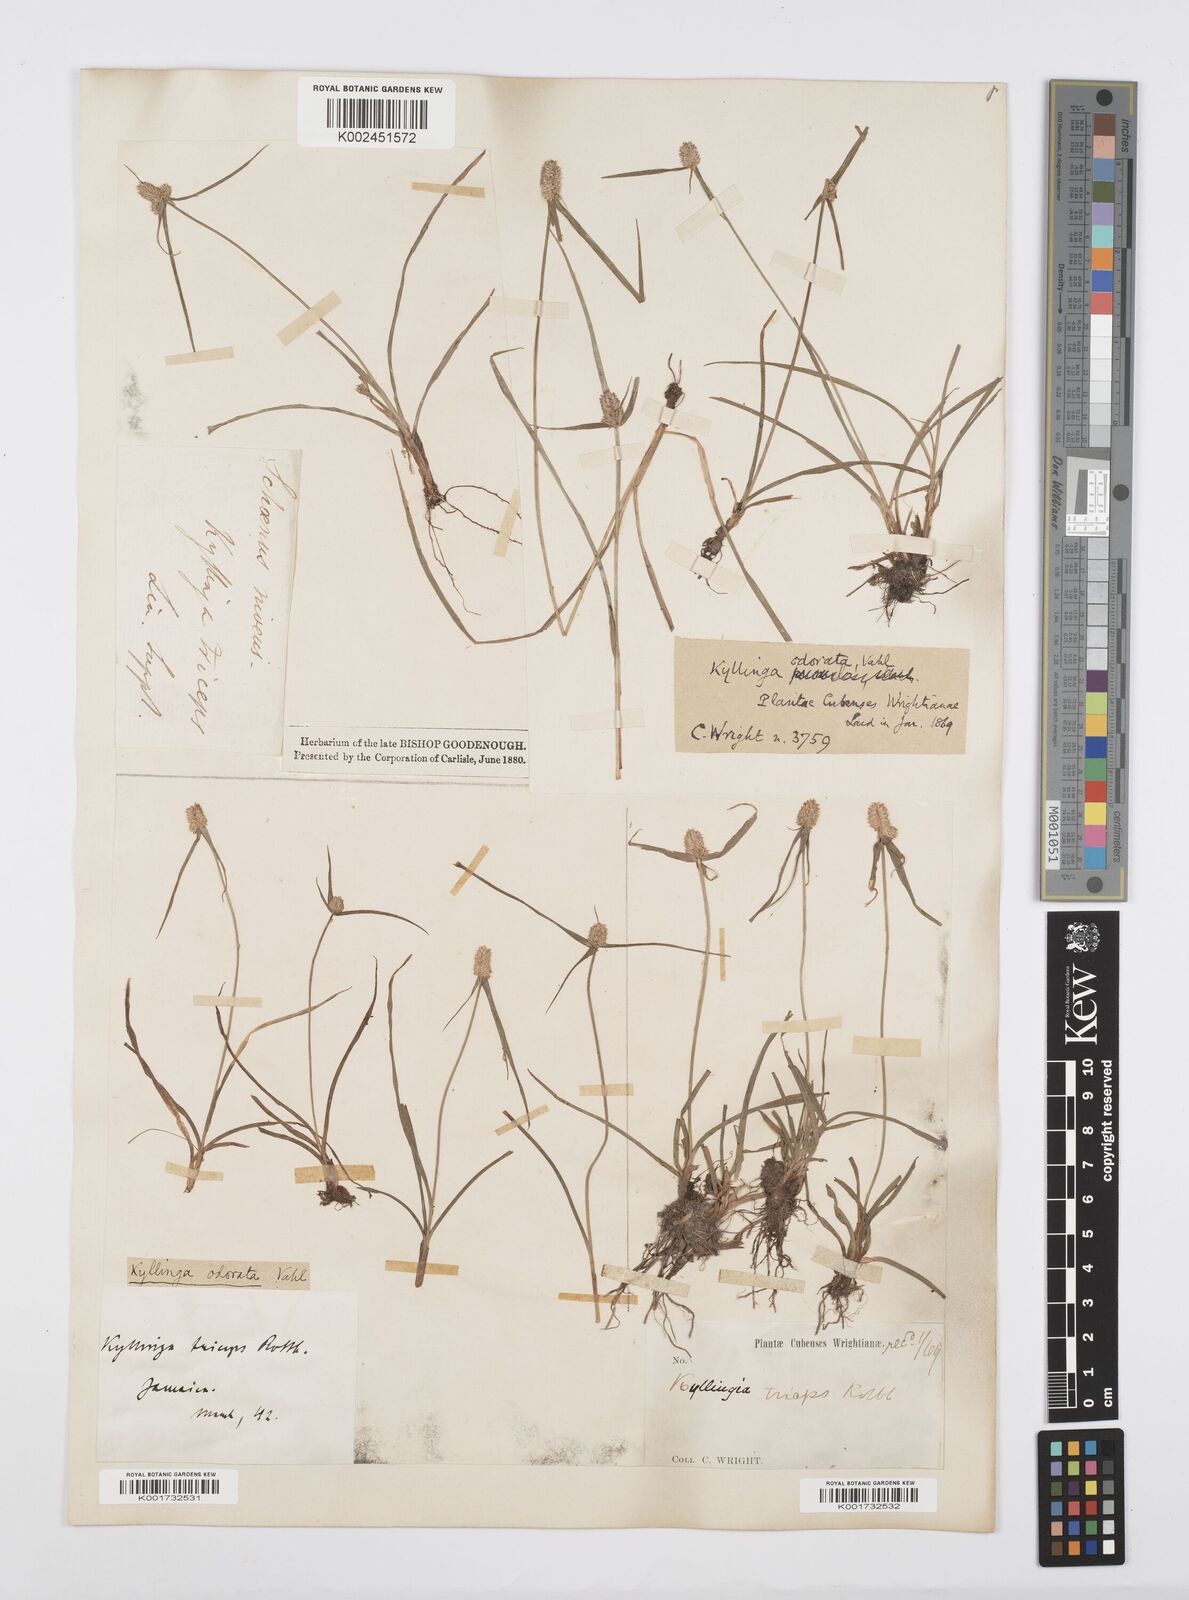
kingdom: Plantae
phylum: Tracheophyta
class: Liliopsida
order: Poales
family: Cyperaceae
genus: Cyperus
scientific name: Cyperus
